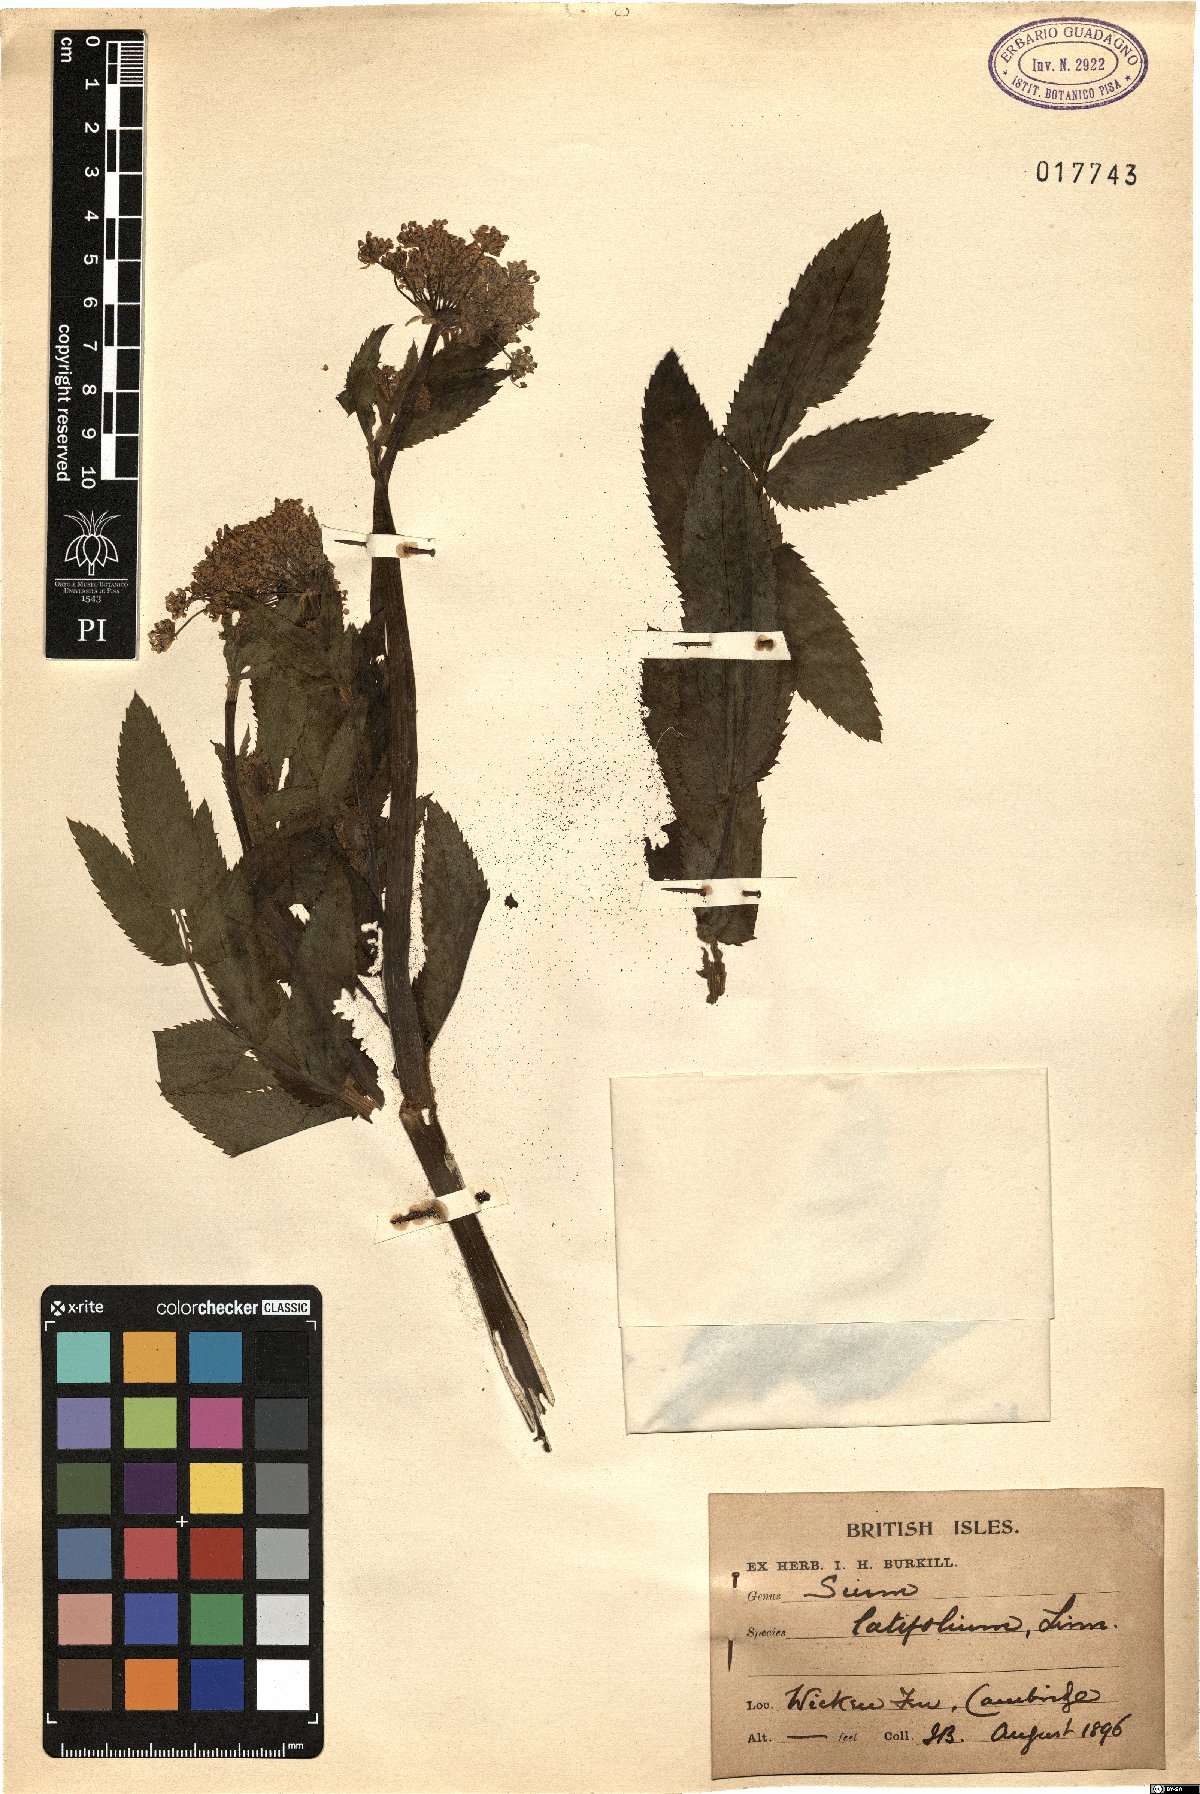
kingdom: Plantae
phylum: Tracheophyta
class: Magnoliopsida
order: Apiales
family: Apiaceae
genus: Sium
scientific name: Sium latifolium
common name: Greater water-parsnip
